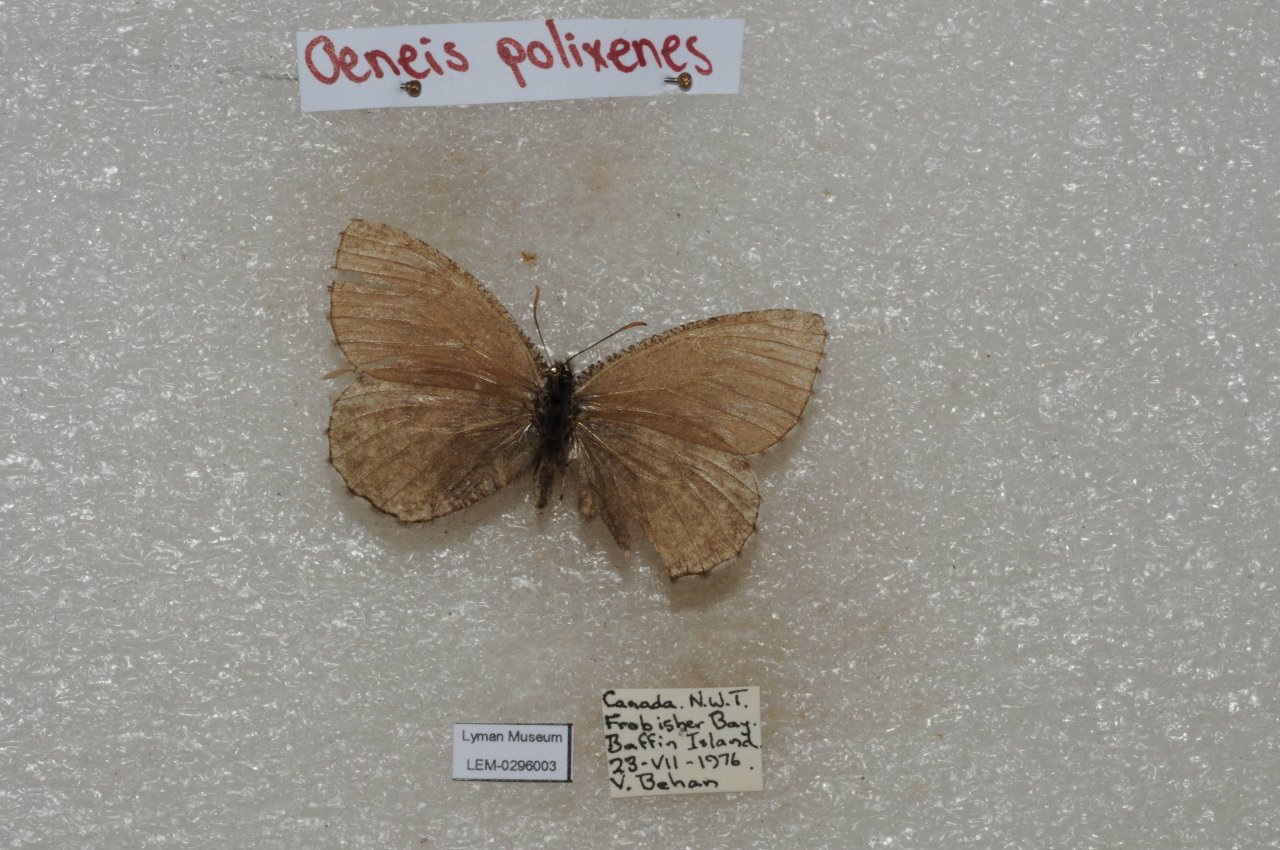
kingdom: Animalia
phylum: Arthropoda
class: Insecta
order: Lepidoptera
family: Nymphalidae
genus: Oeneis
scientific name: Oeneis bore
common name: Polixenes Arctic
